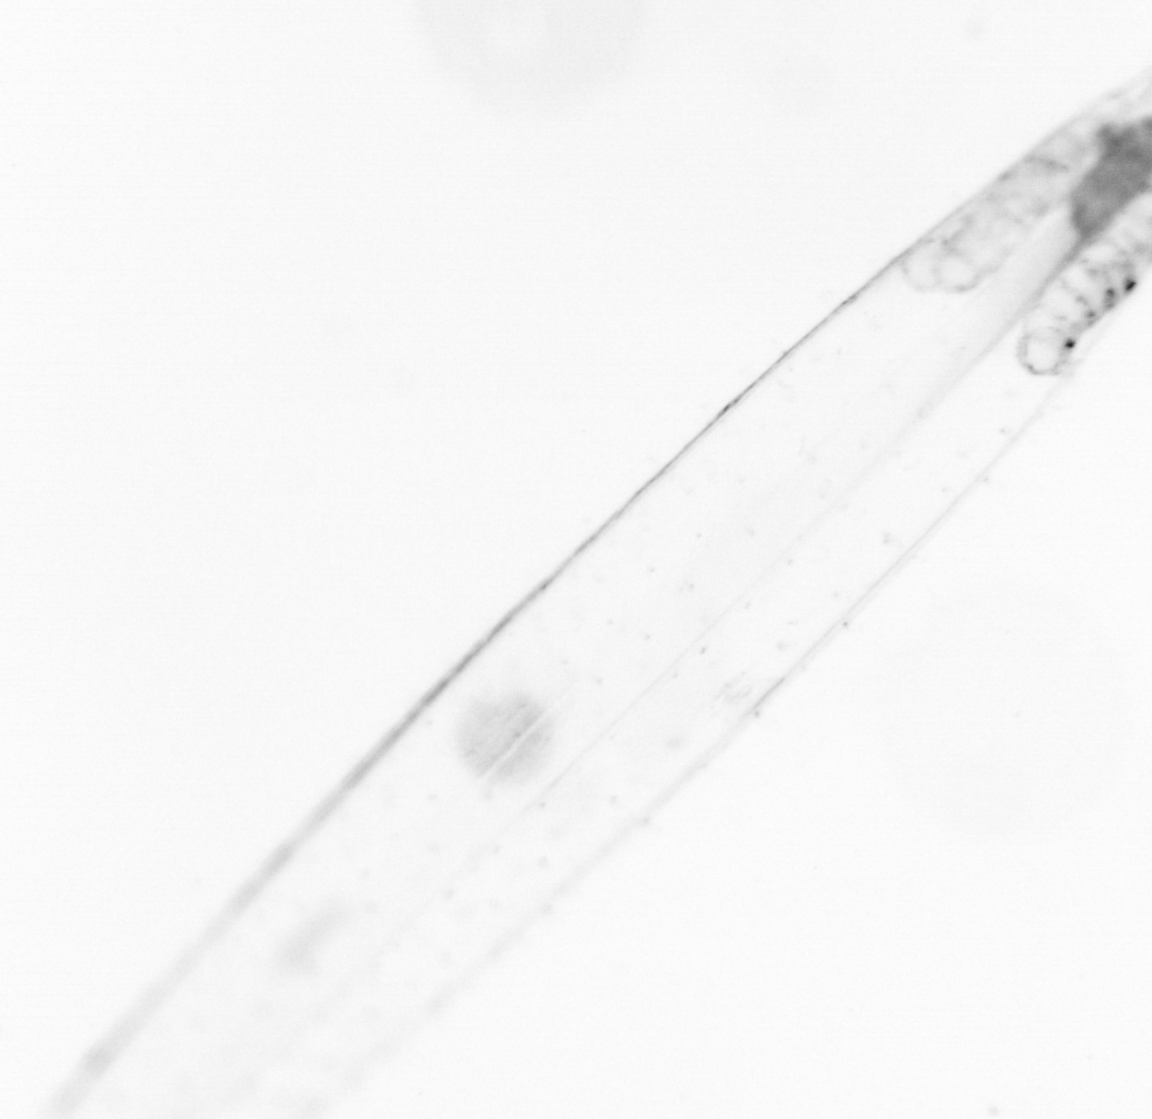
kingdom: Animalia
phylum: Chaetognatha
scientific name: Chaetognatha
